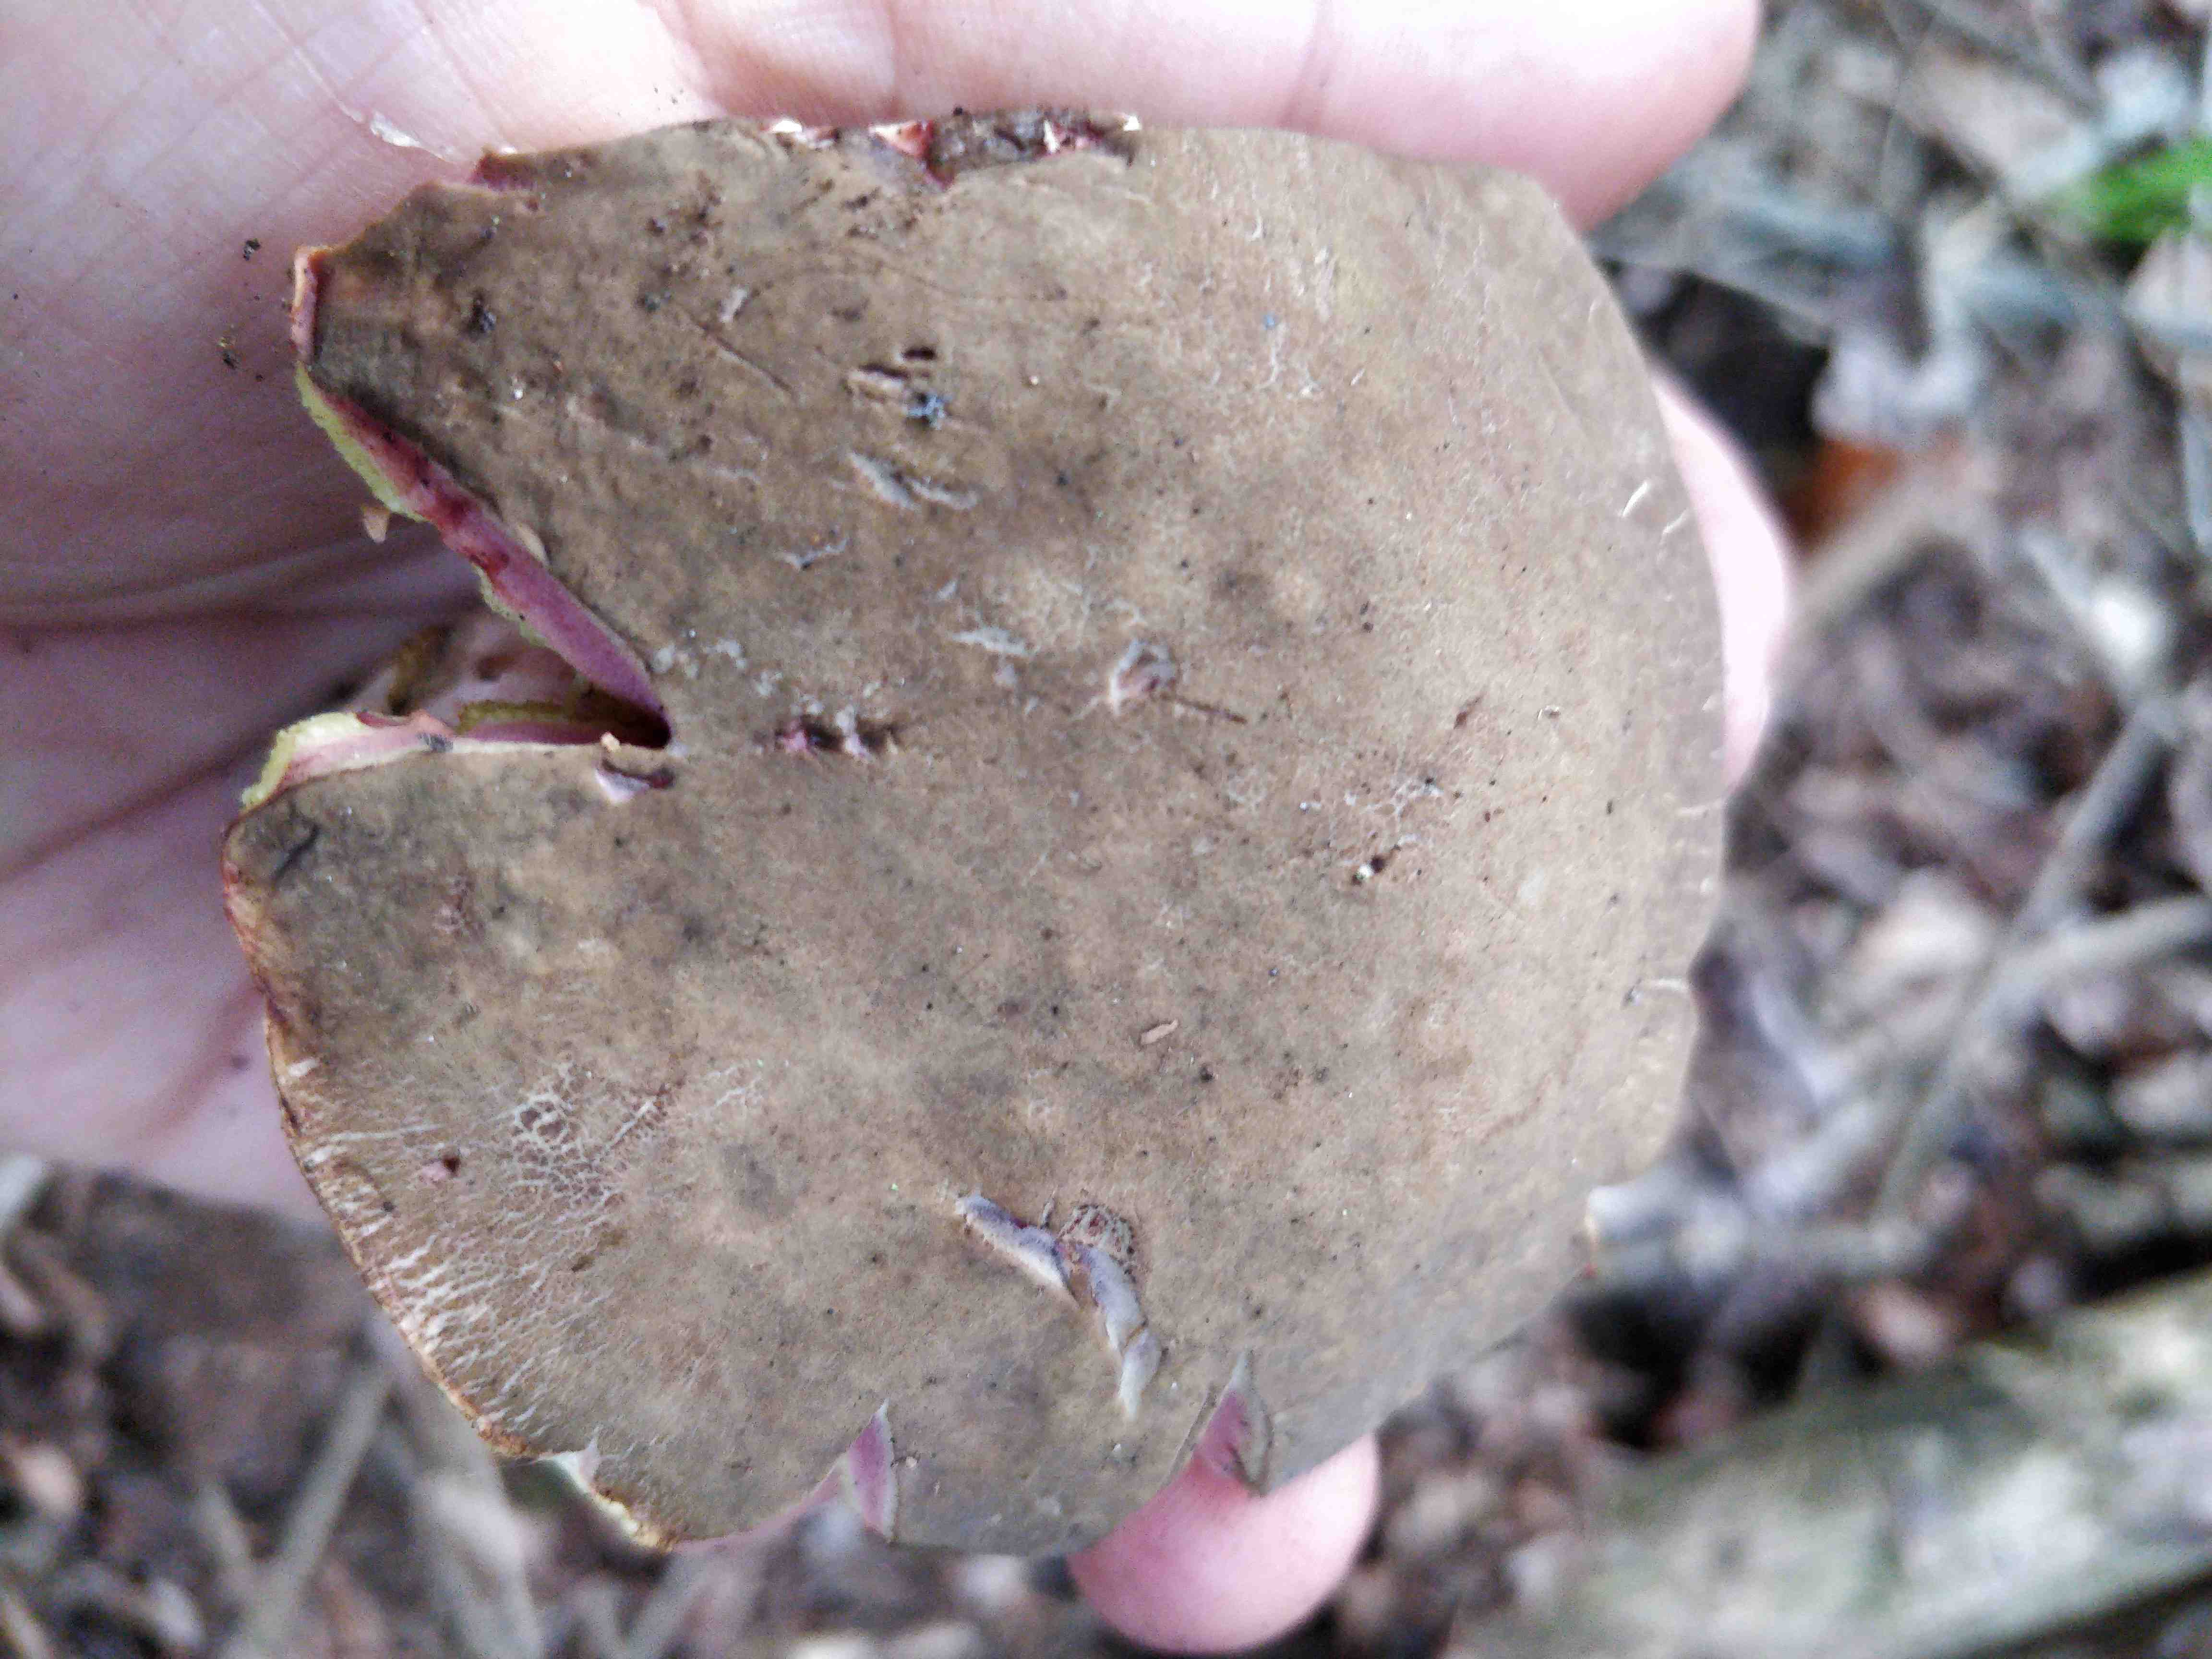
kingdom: Fungi
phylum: Basidiomycota
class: Agaricomycetes
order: Boletales
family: Boletaceae
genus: Xerocomellus
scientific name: Xerocomellus pruinatus
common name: dugget rørhat
